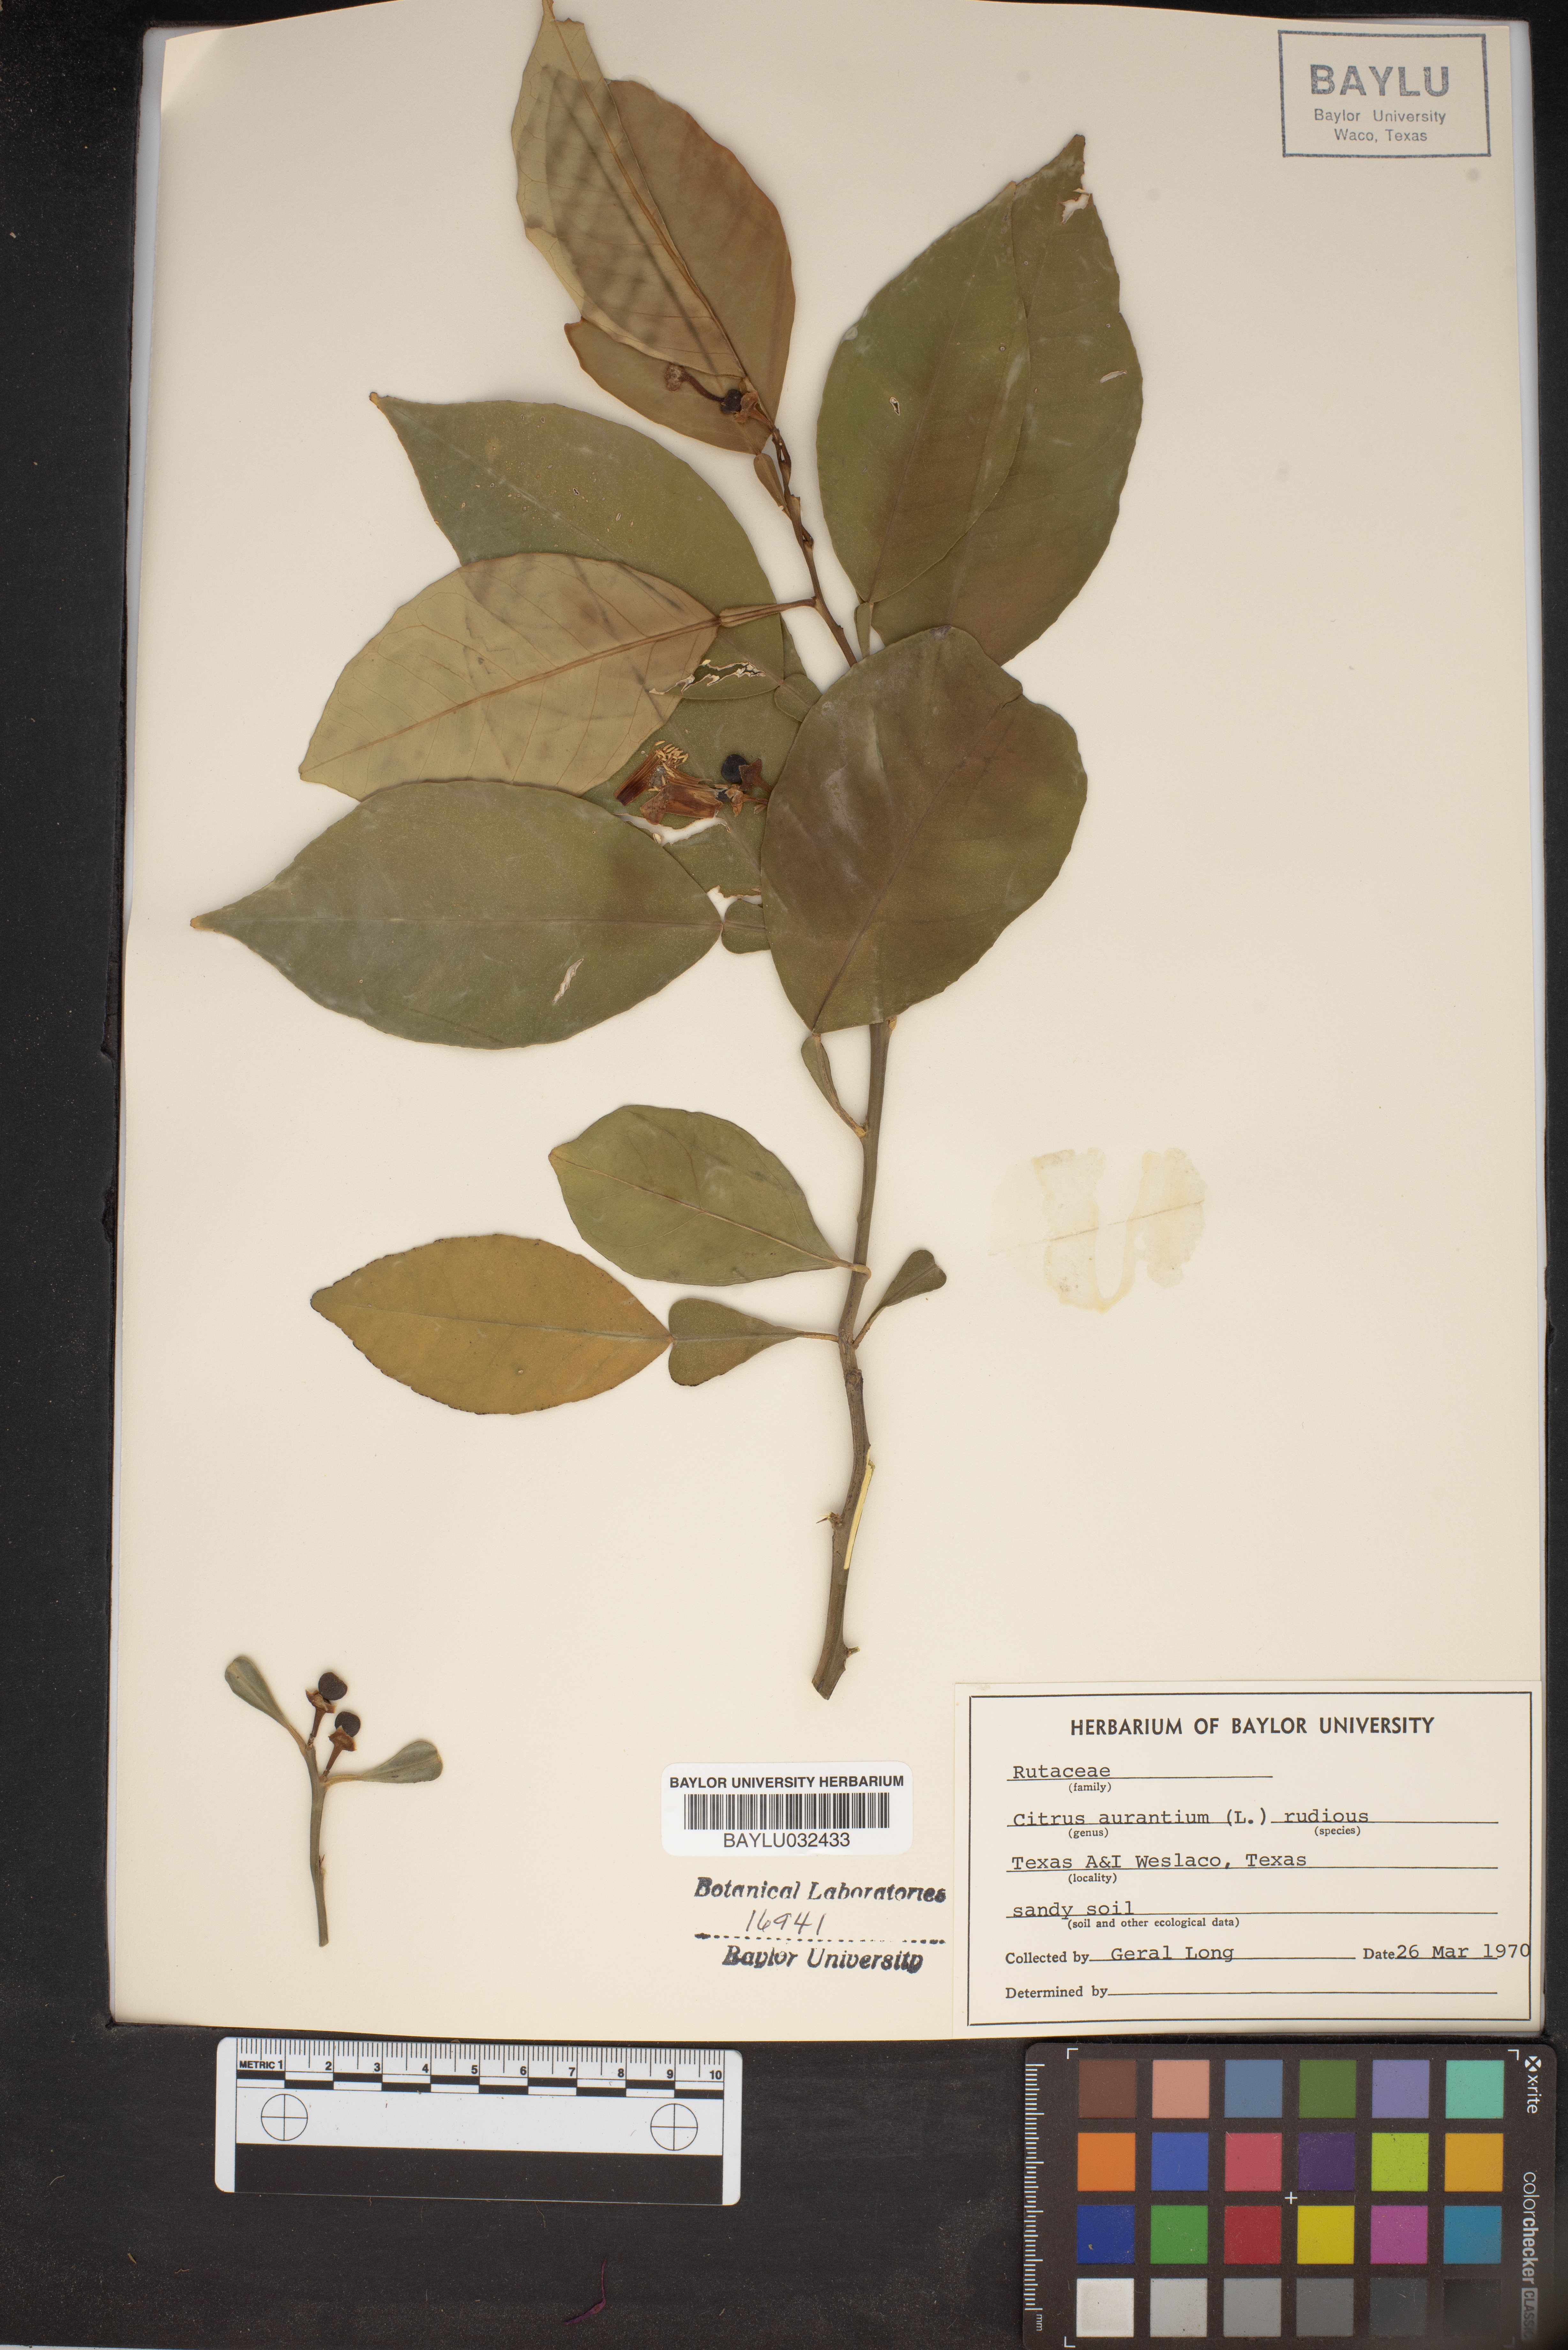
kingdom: Plantae
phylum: Tracheophyta
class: Magnoliopsida
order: Sapindales
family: Rutaceae
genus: Citrus
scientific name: Citrus aurantium
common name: Sour orange
